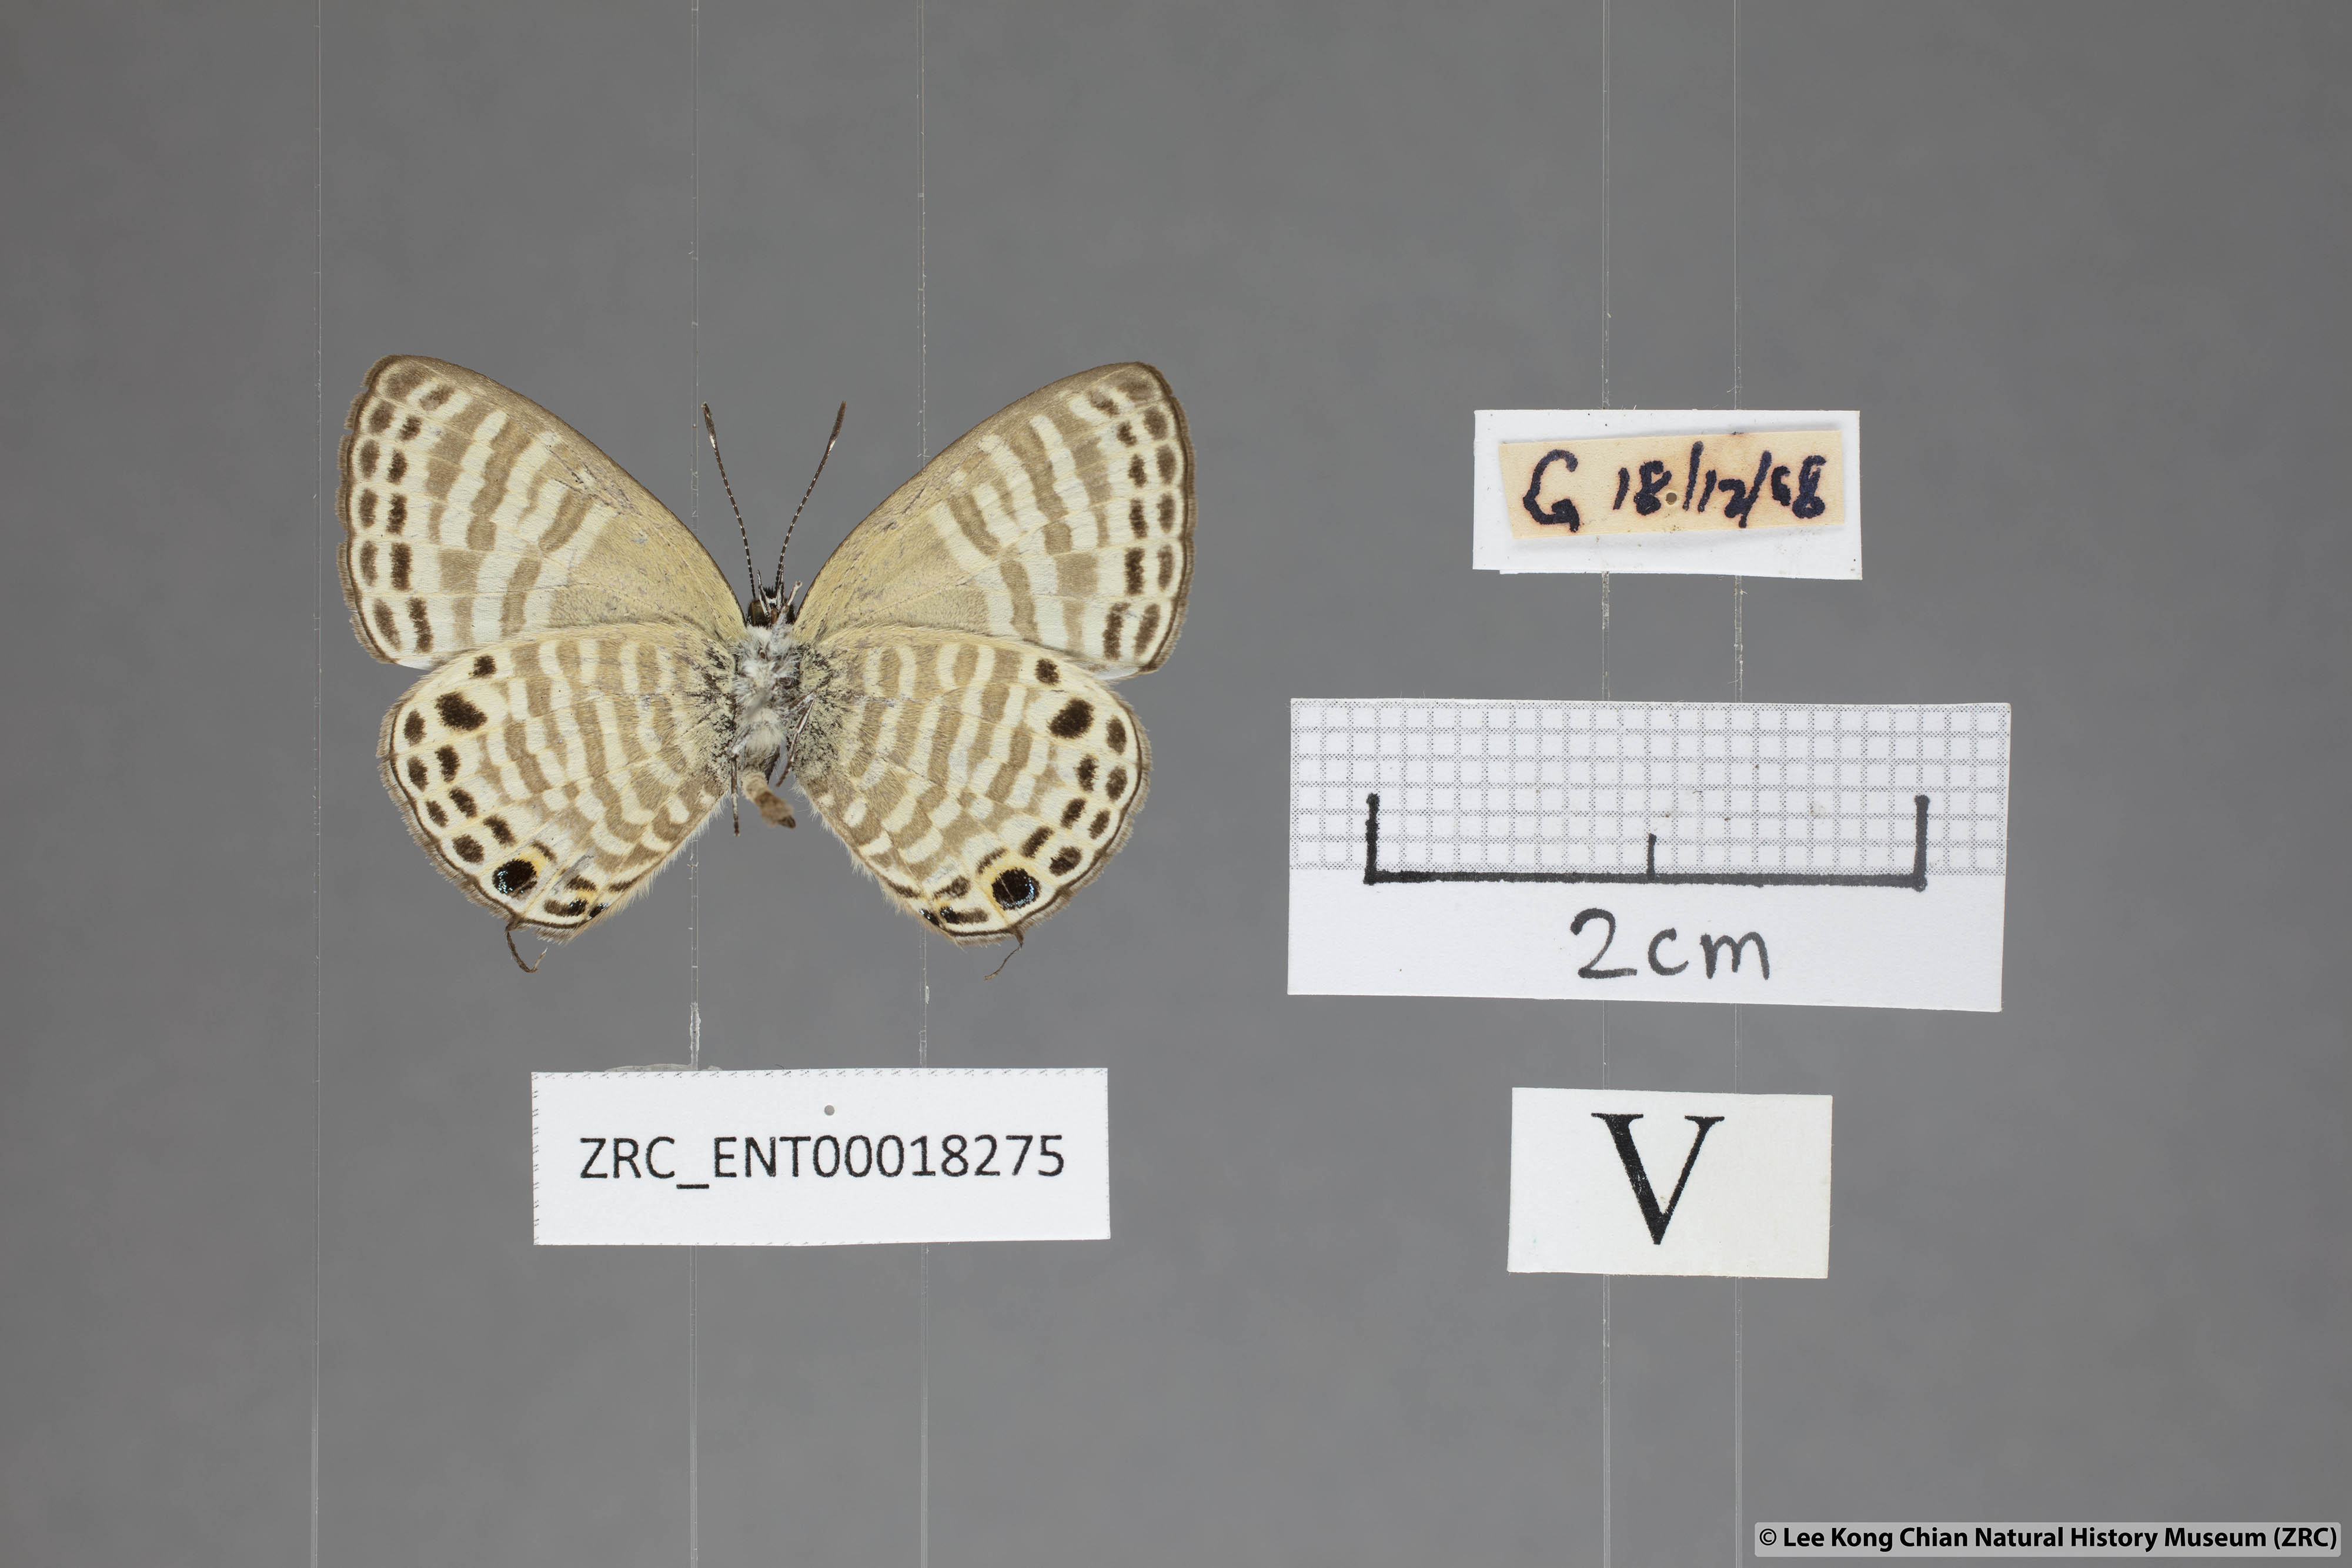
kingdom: Animalia
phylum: Arthropoda
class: Insecta
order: Lepidoptera
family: Lycaenidae
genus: Nacaduba
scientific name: Nacaduba angusta
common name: White four-line blue
